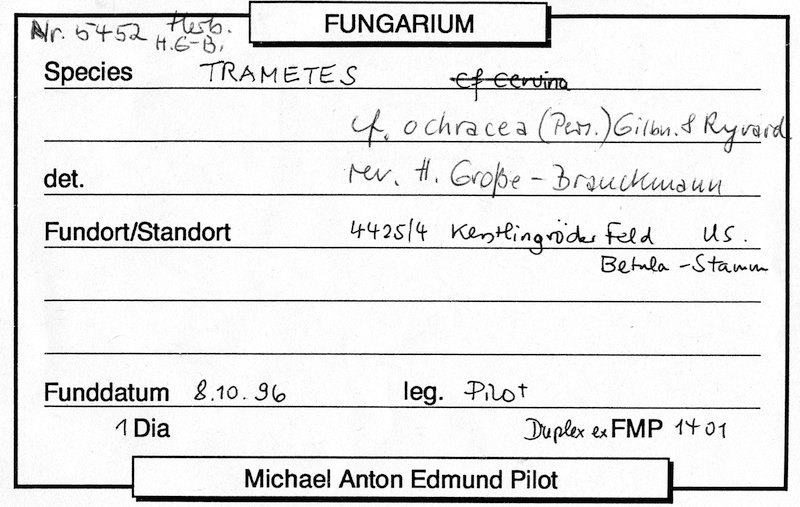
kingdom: Fungi
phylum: Basidiomycota
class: Agaricomycetes
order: Polyporales
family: Polyporaceae
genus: Trametes
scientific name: Trametes ochracea
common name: Ochre bracket
